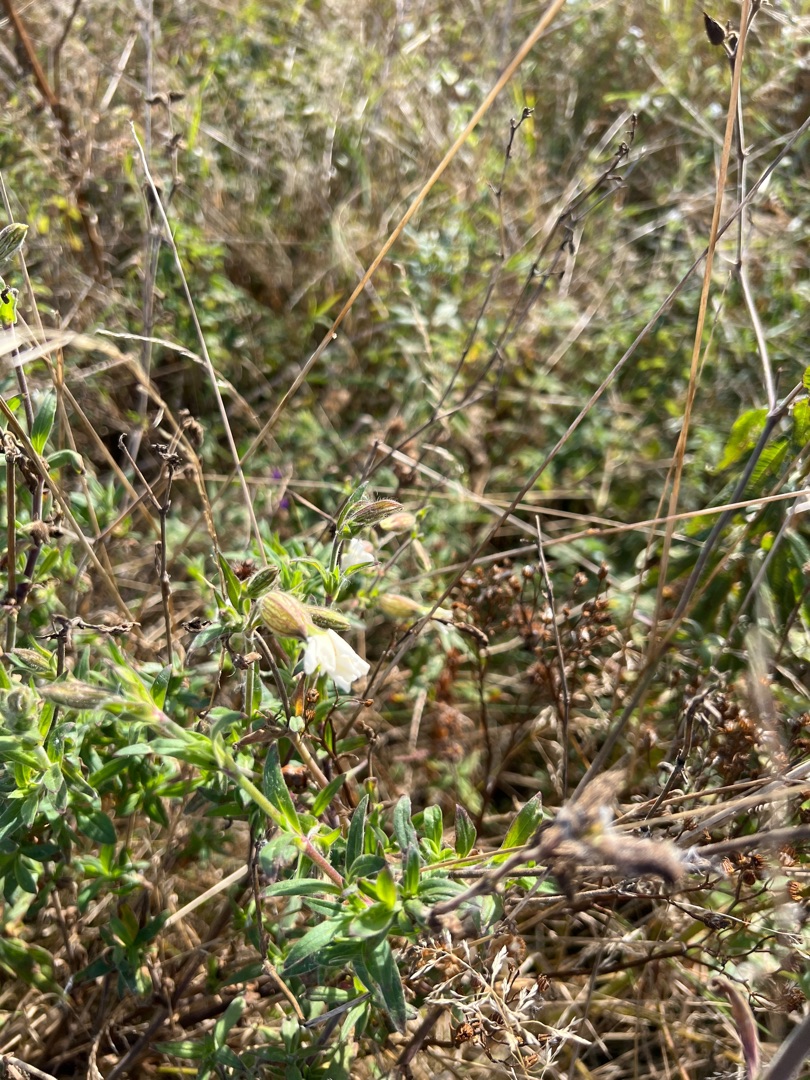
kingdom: Plantae
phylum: Tracheophyta
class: Magnoliopsida
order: Caryophyllales
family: Caryophyllaceae
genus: Silene
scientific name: Silene latifolia
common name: Aftenpragtstjerne
